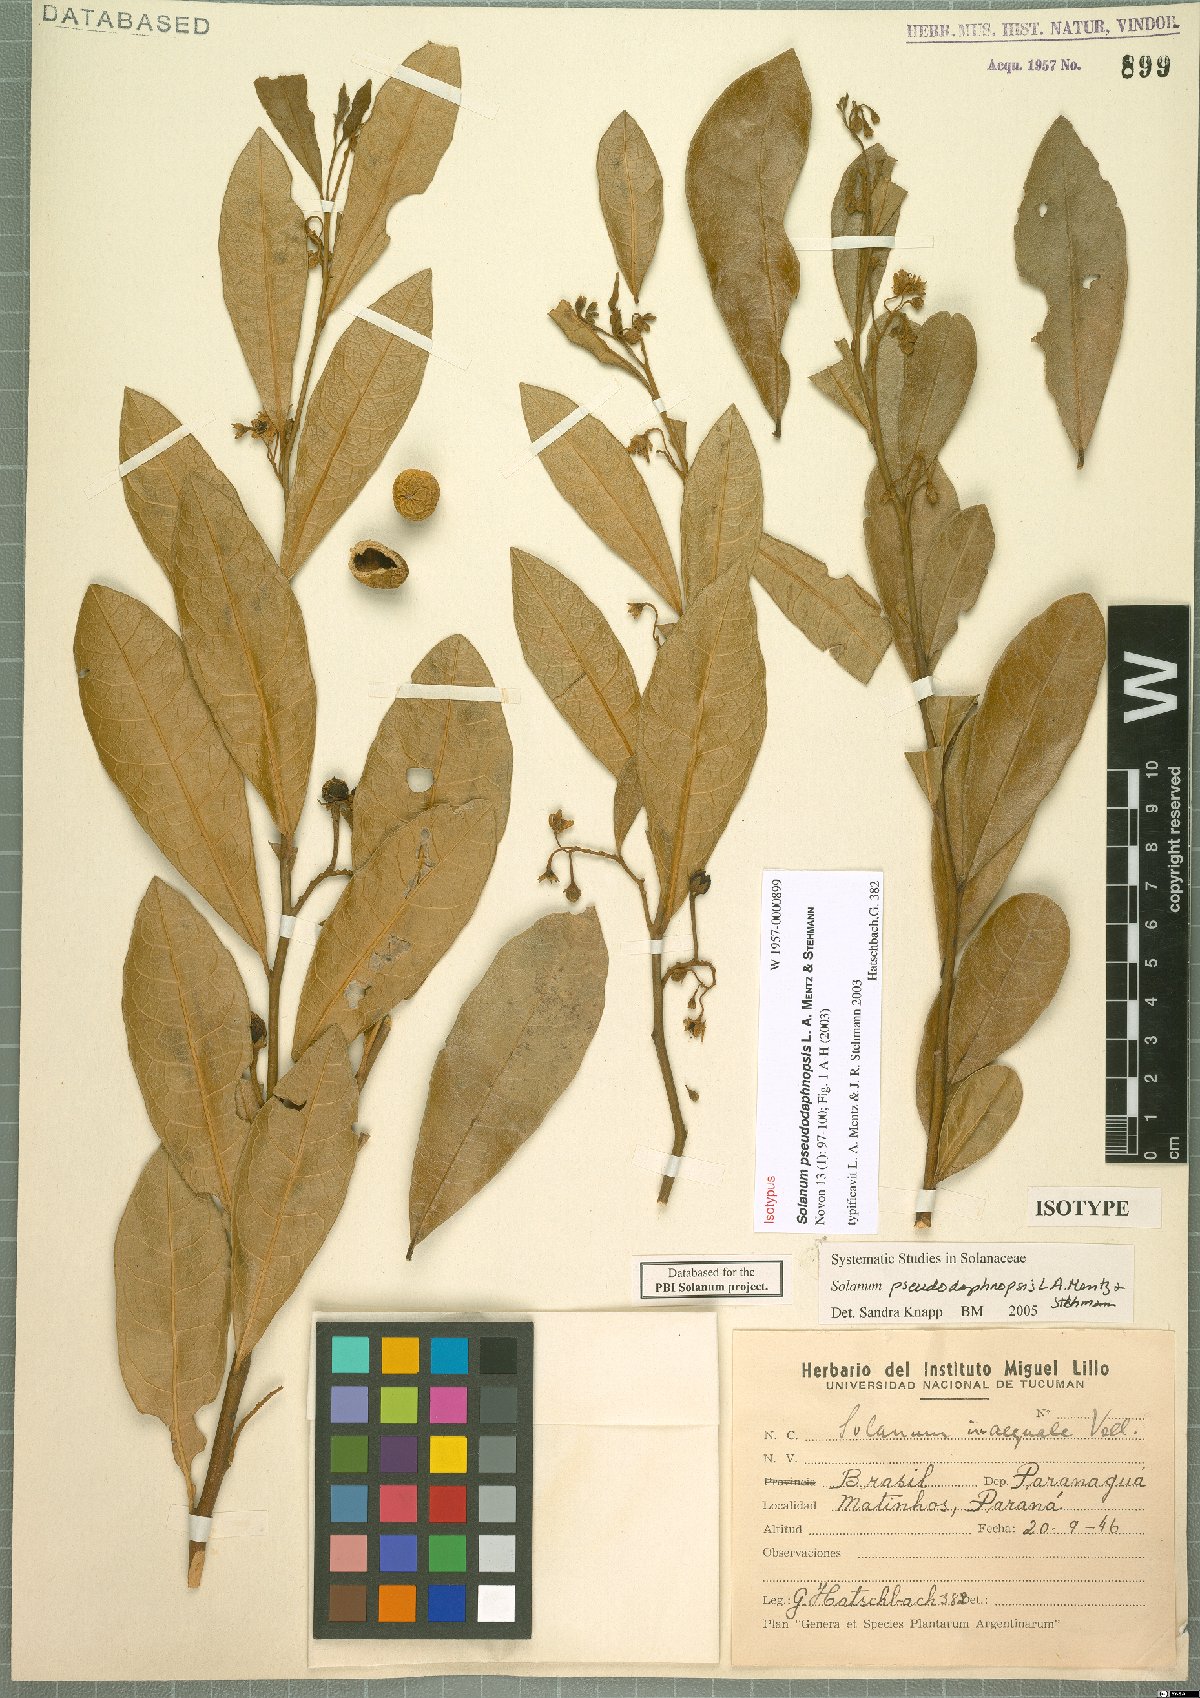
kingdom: Plantae
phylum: Tracheophyta
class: Magnoliopsida
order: Solanales
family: Solanaceae
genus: Solanum
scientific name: Solanum pseudodaphnopsis
